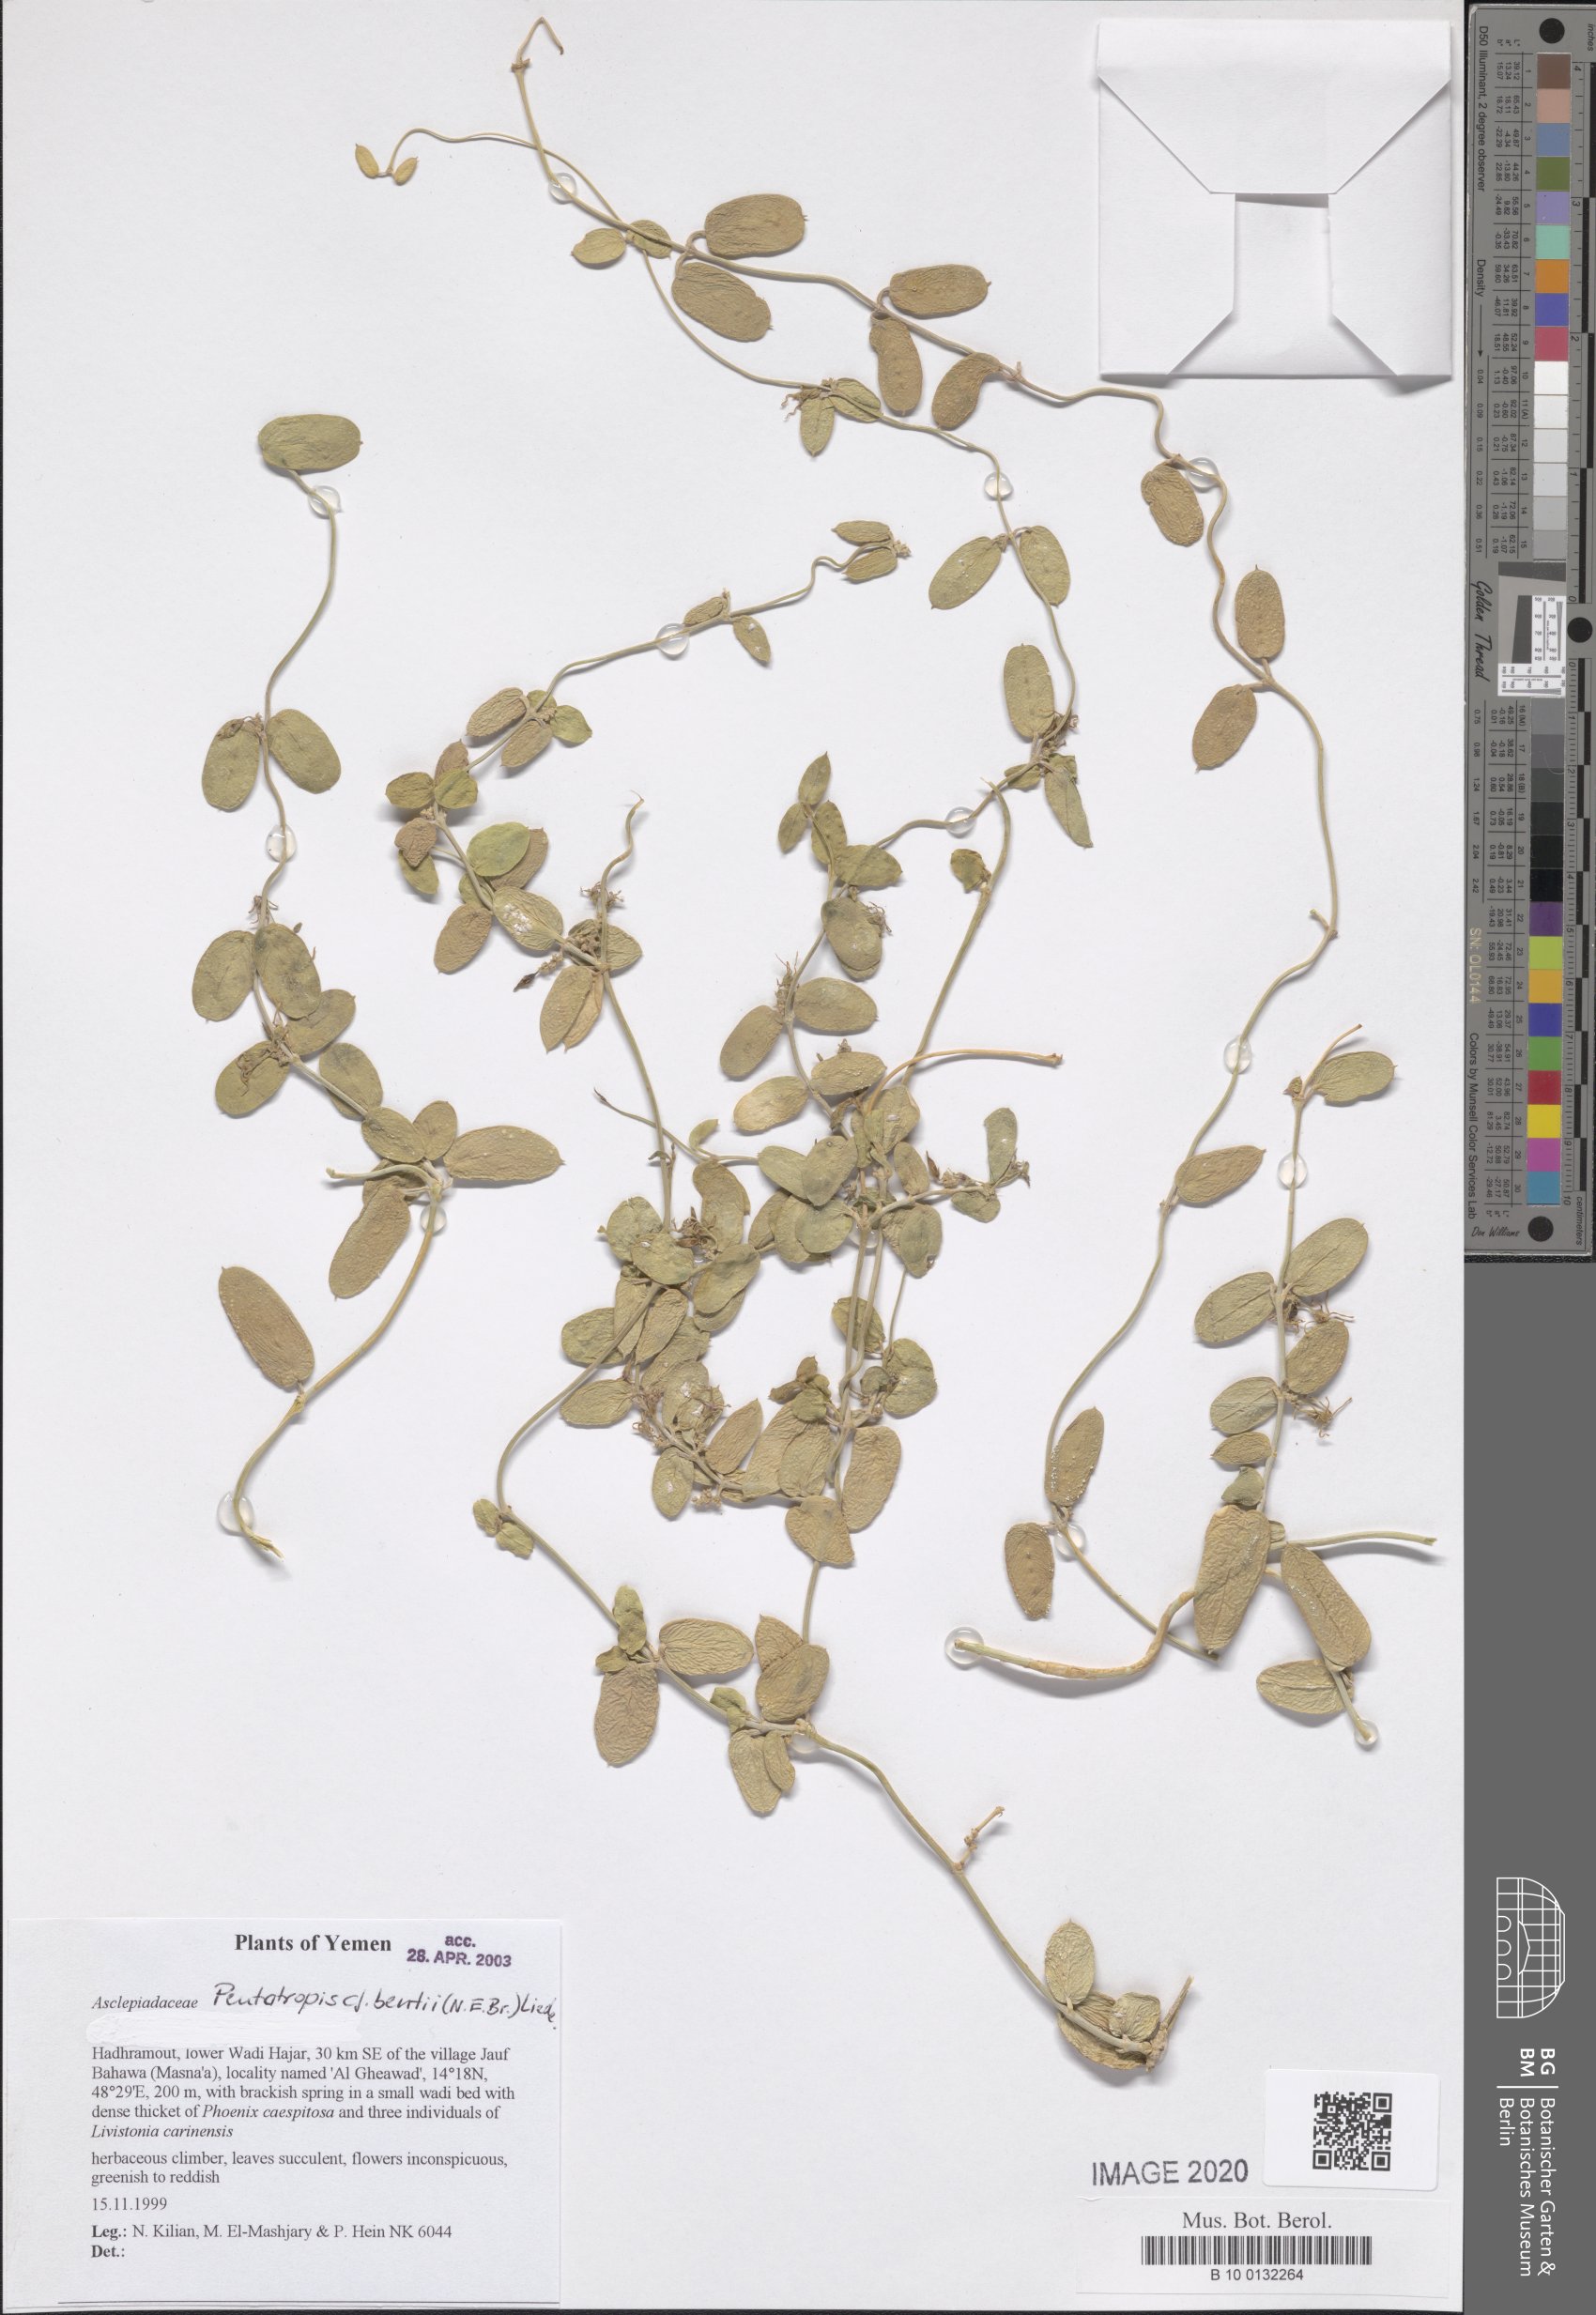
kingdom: Plantae
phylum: Tracheophyta
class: Magnoliopsida
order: Gentianales
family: Apocynaceae
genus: Pentatropis
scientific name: Pentatropis bentii
